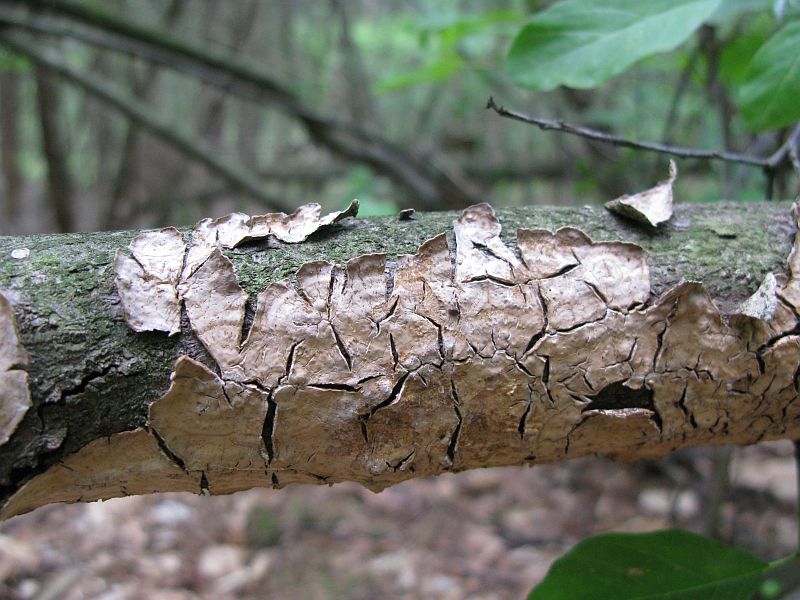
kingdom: Fungi
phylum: Basidiomycota
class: Agaricomycetes
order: Agaricales
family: Physalacriaceae
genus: Cylindrobasidium
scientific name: Cylindrobasidium evolvens
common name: sprækkehinde
